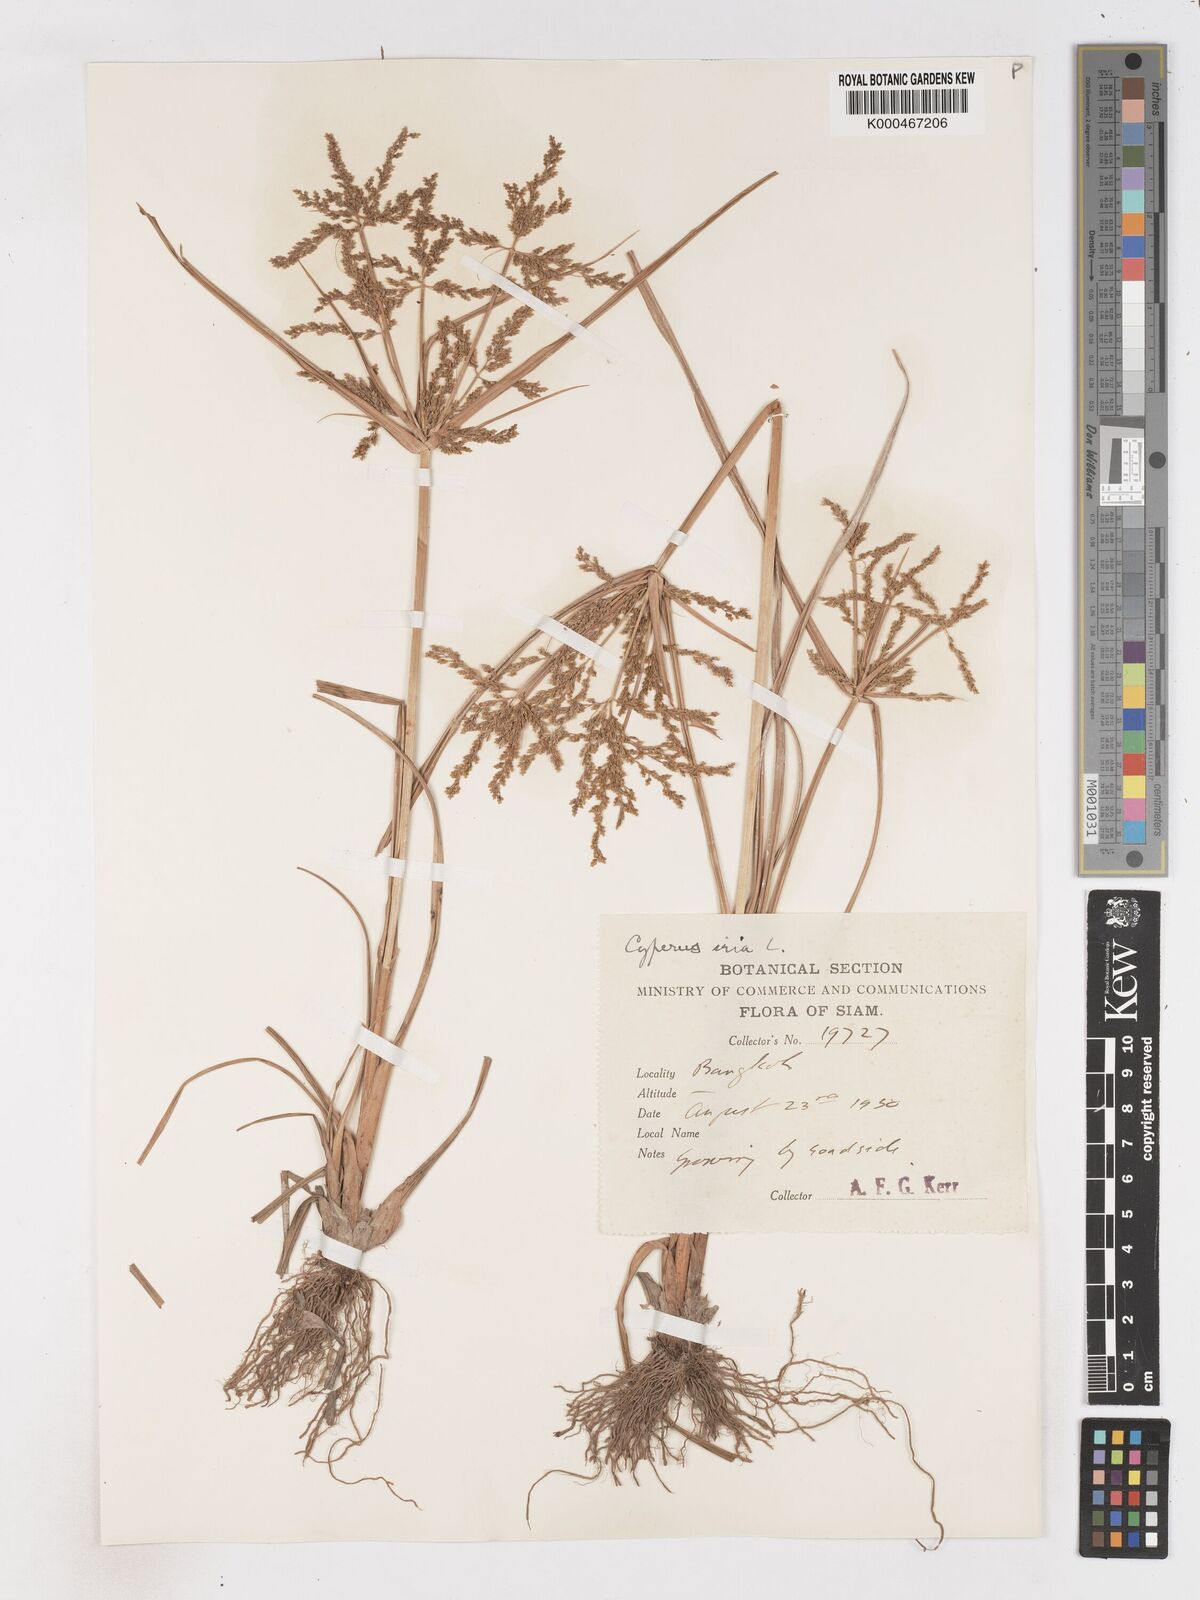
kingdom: Plantae
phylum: Tracheophyta
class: Liliopsida
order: Poales
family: Cyperaceae
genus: Cyperus
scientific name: Cyperus iria
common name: Ricefield flatsedge
